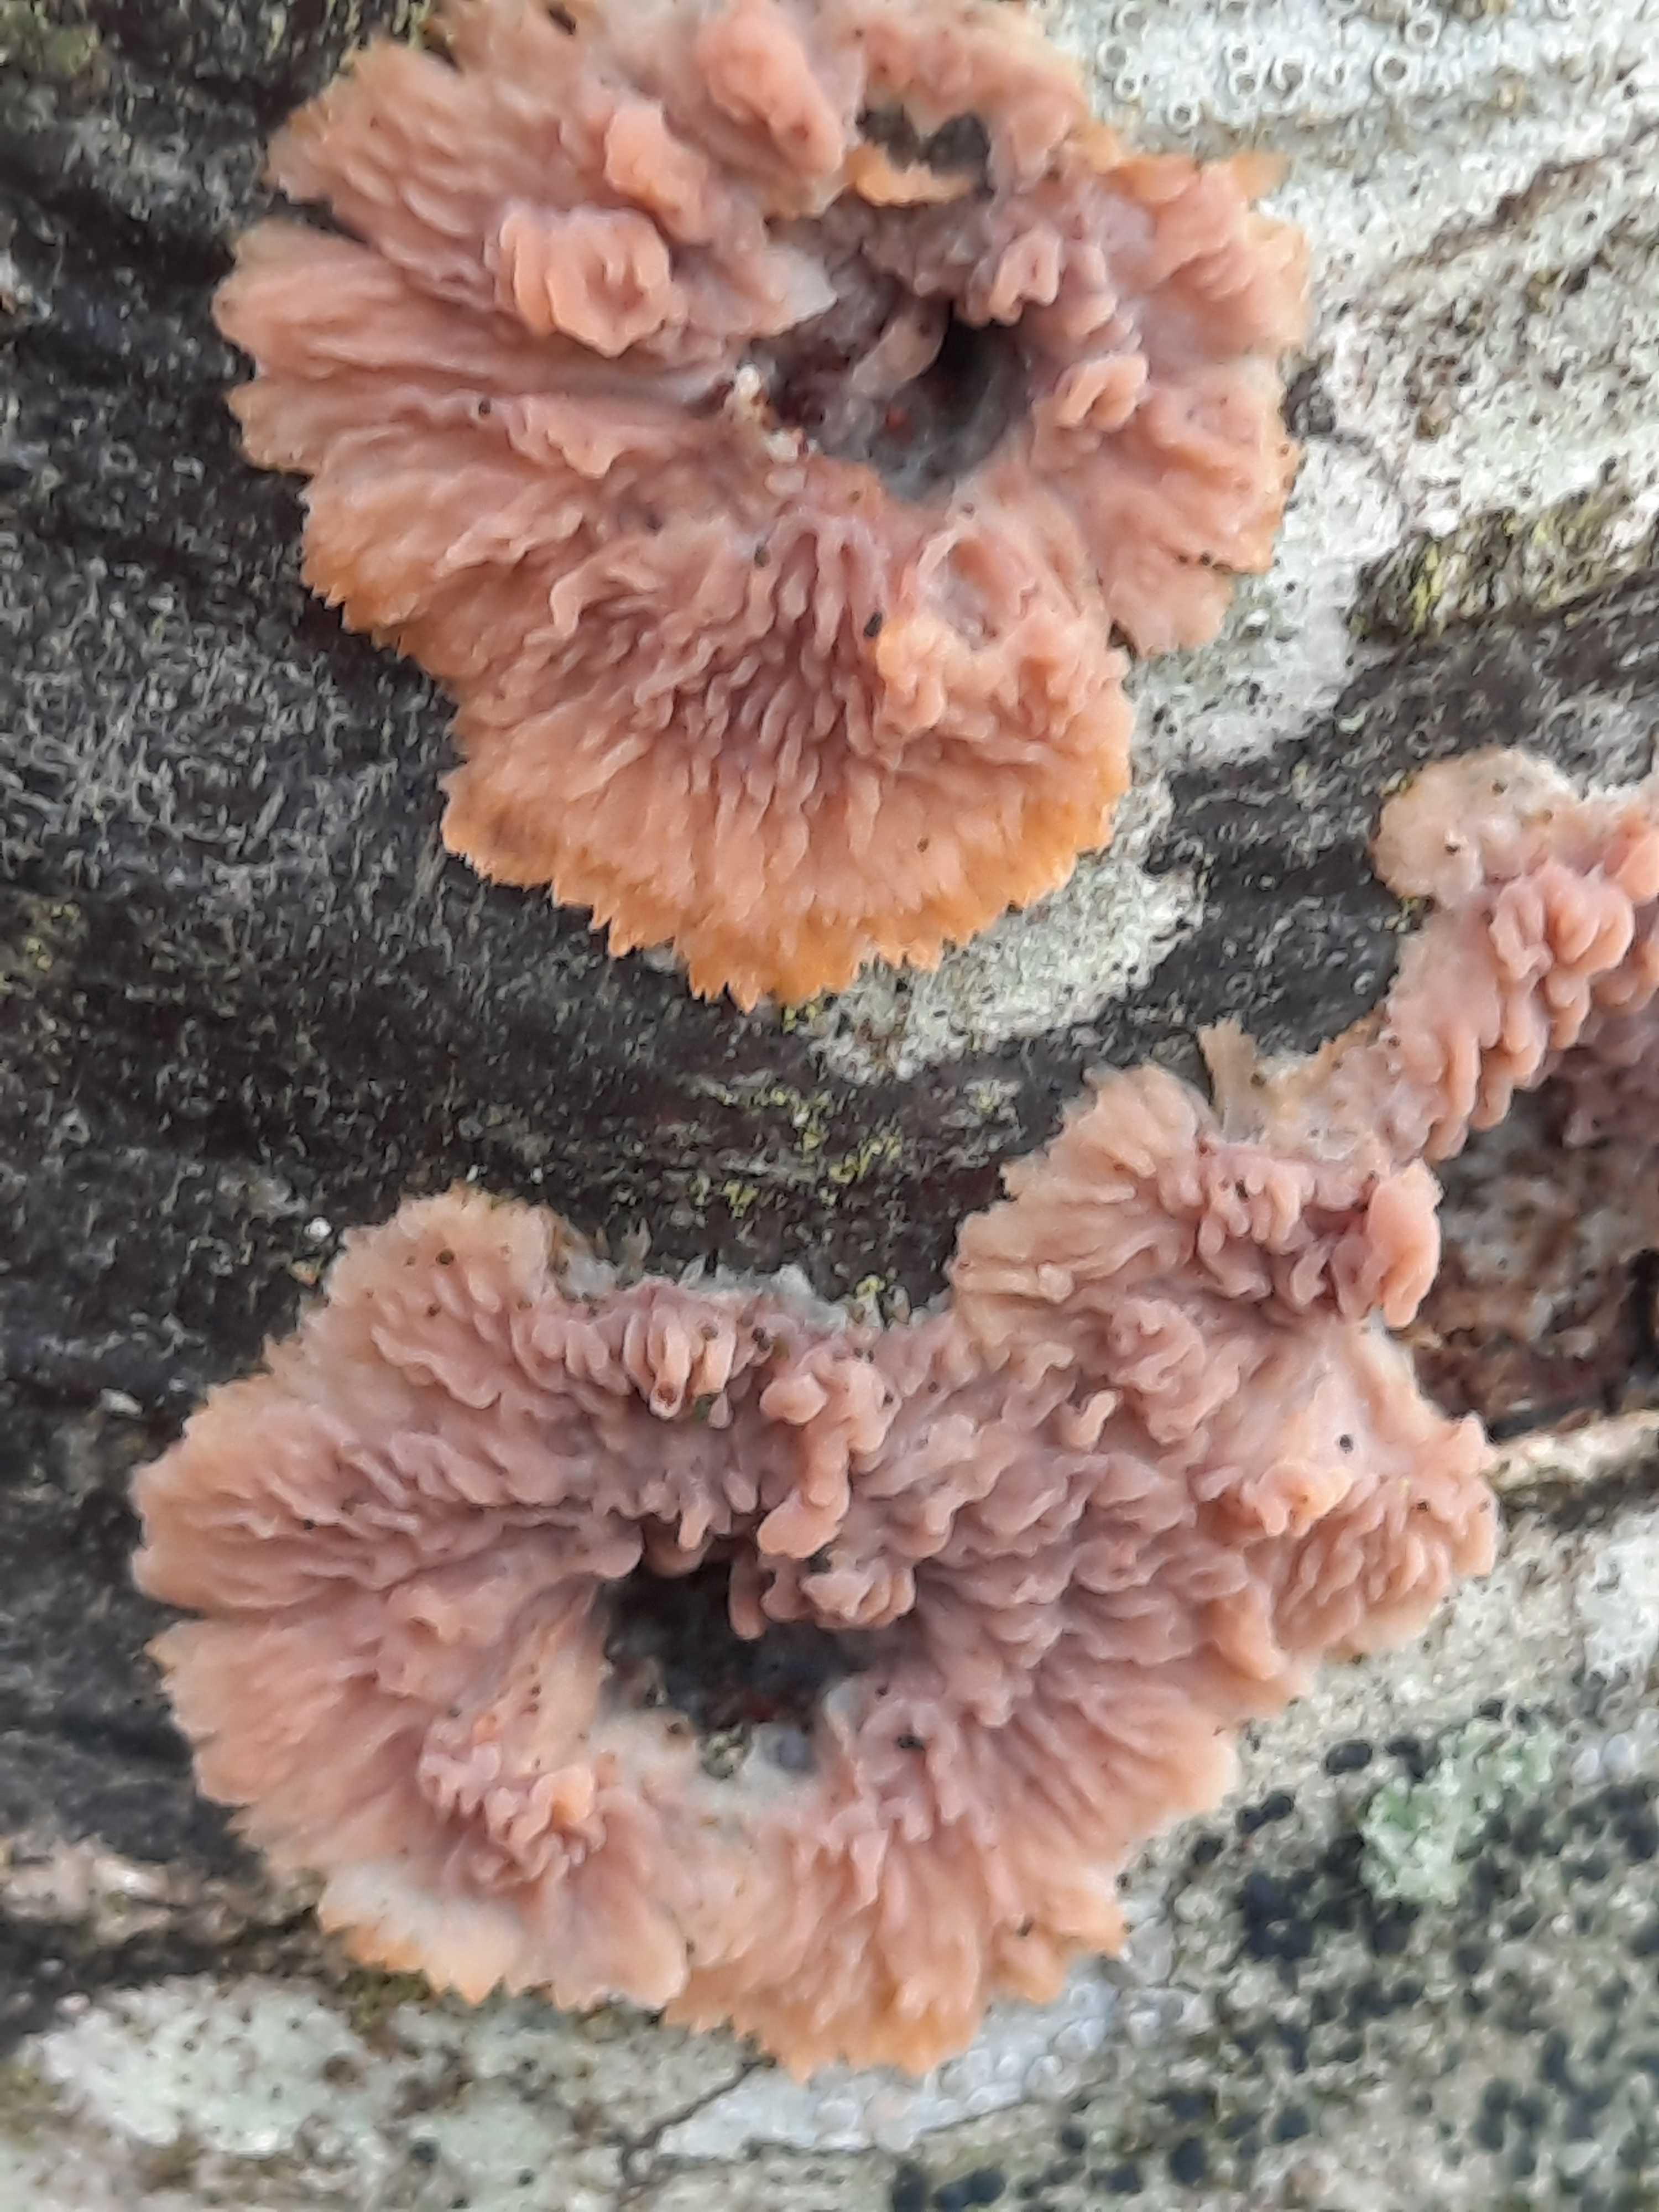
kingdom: Fungi
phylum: Basidiomycota
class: Agaricomycetes
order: Polyporales
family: Meruliaceae
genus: Phlebia
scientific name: Phlebia radiata
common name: stråle-åresvamp
